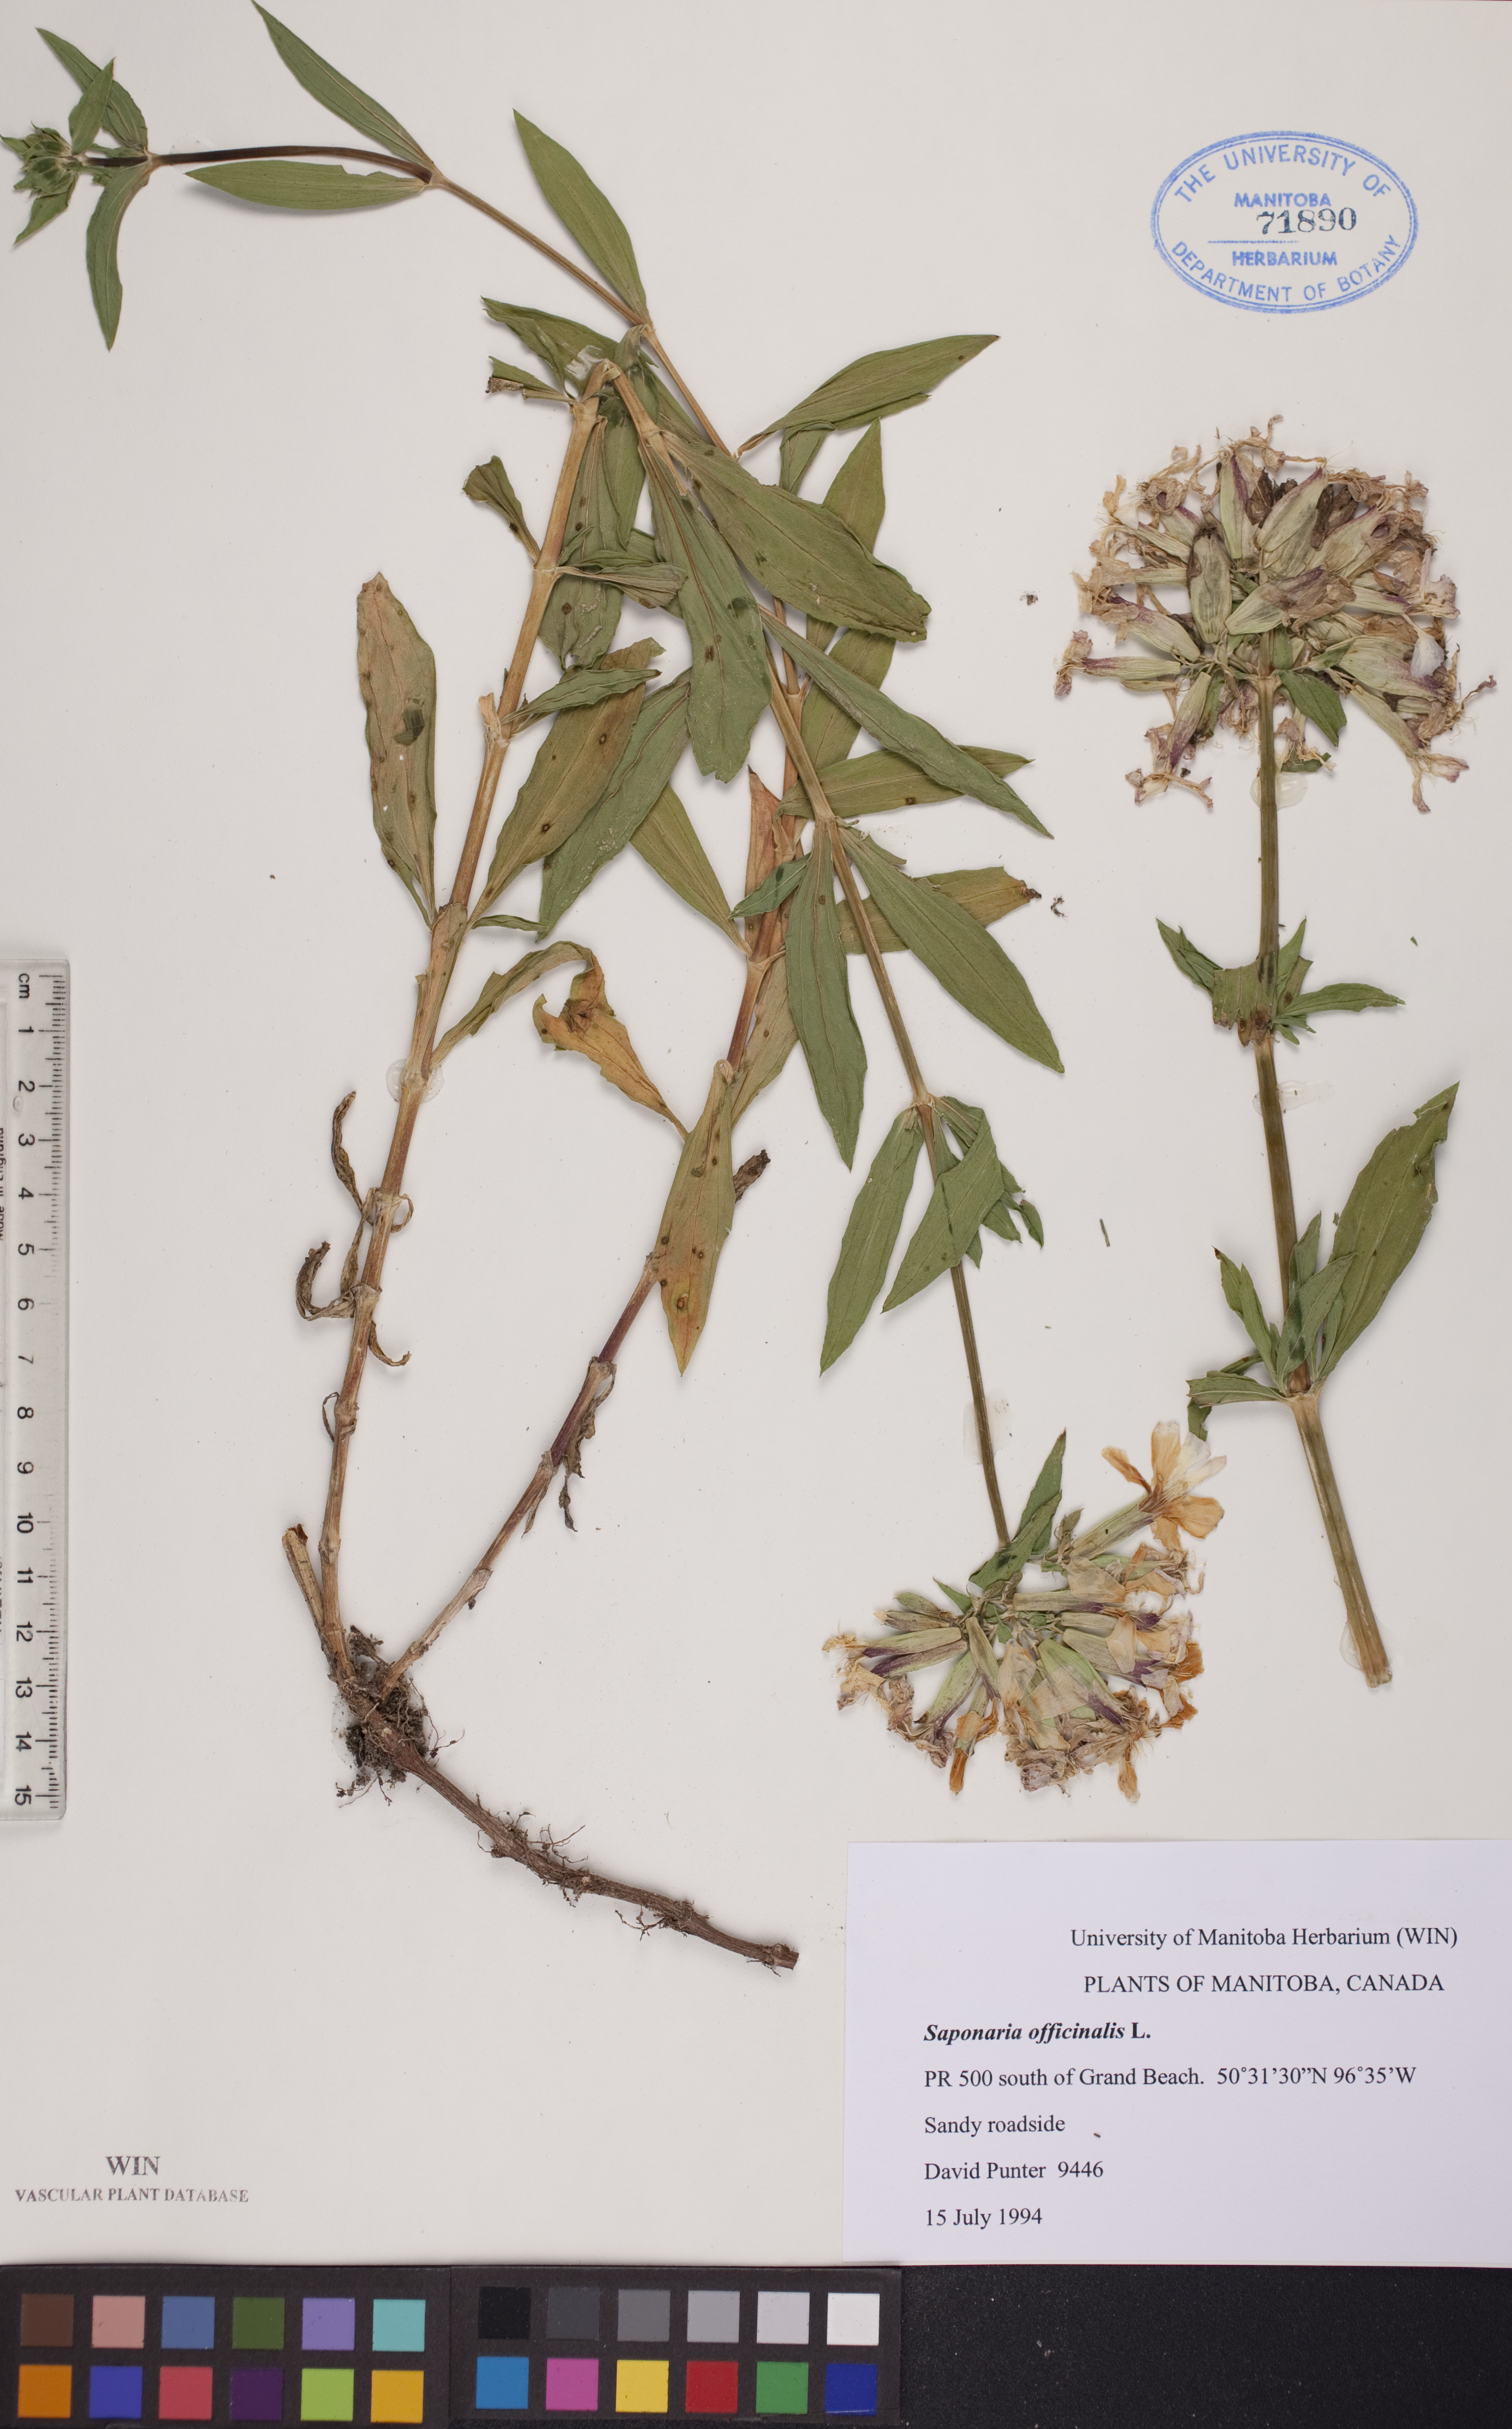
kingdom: Plantae
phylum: Tracheophyta
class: Magnoliopsida
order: Caryophyllales
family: Caryophyllaceae
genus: Saponaria
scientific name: Saponaria officinalis
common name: Soapwort
